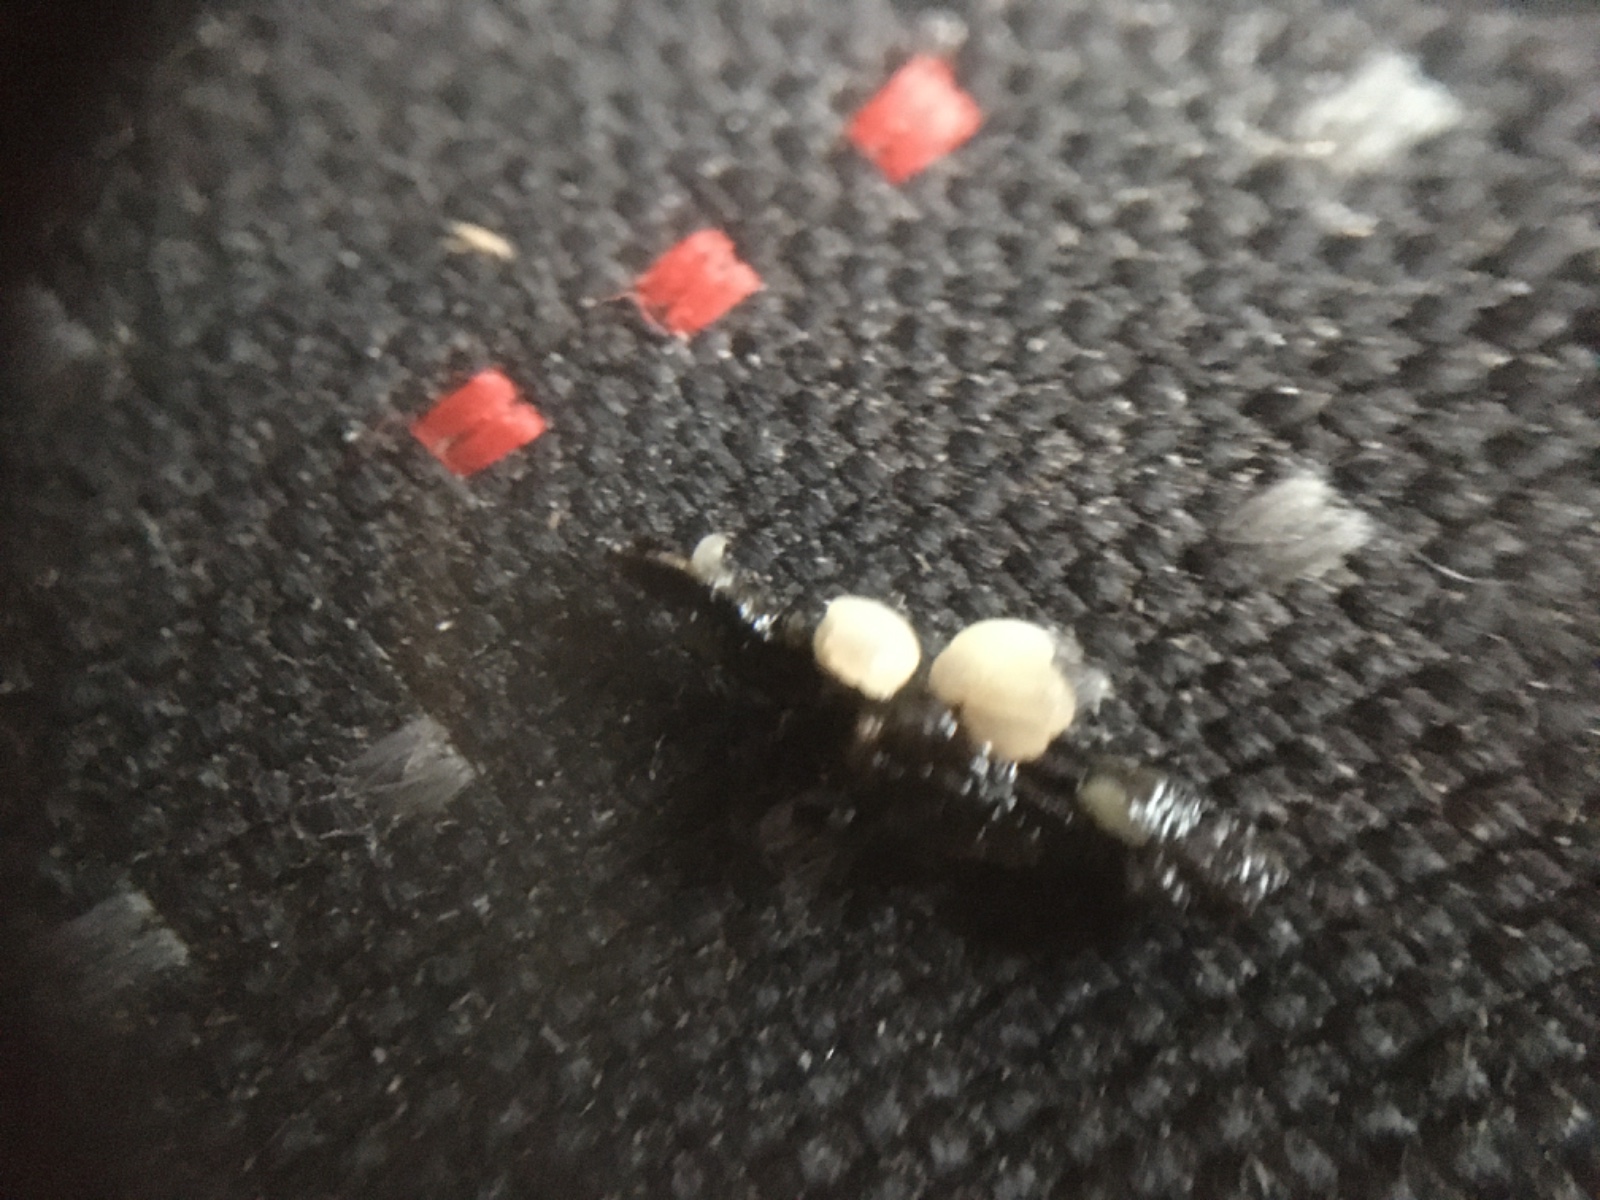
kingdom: Fungi
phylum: Ascomycota
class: Leotiomycetes
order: Helotiales
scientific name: Helotiales
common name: stilkskiveordenen
